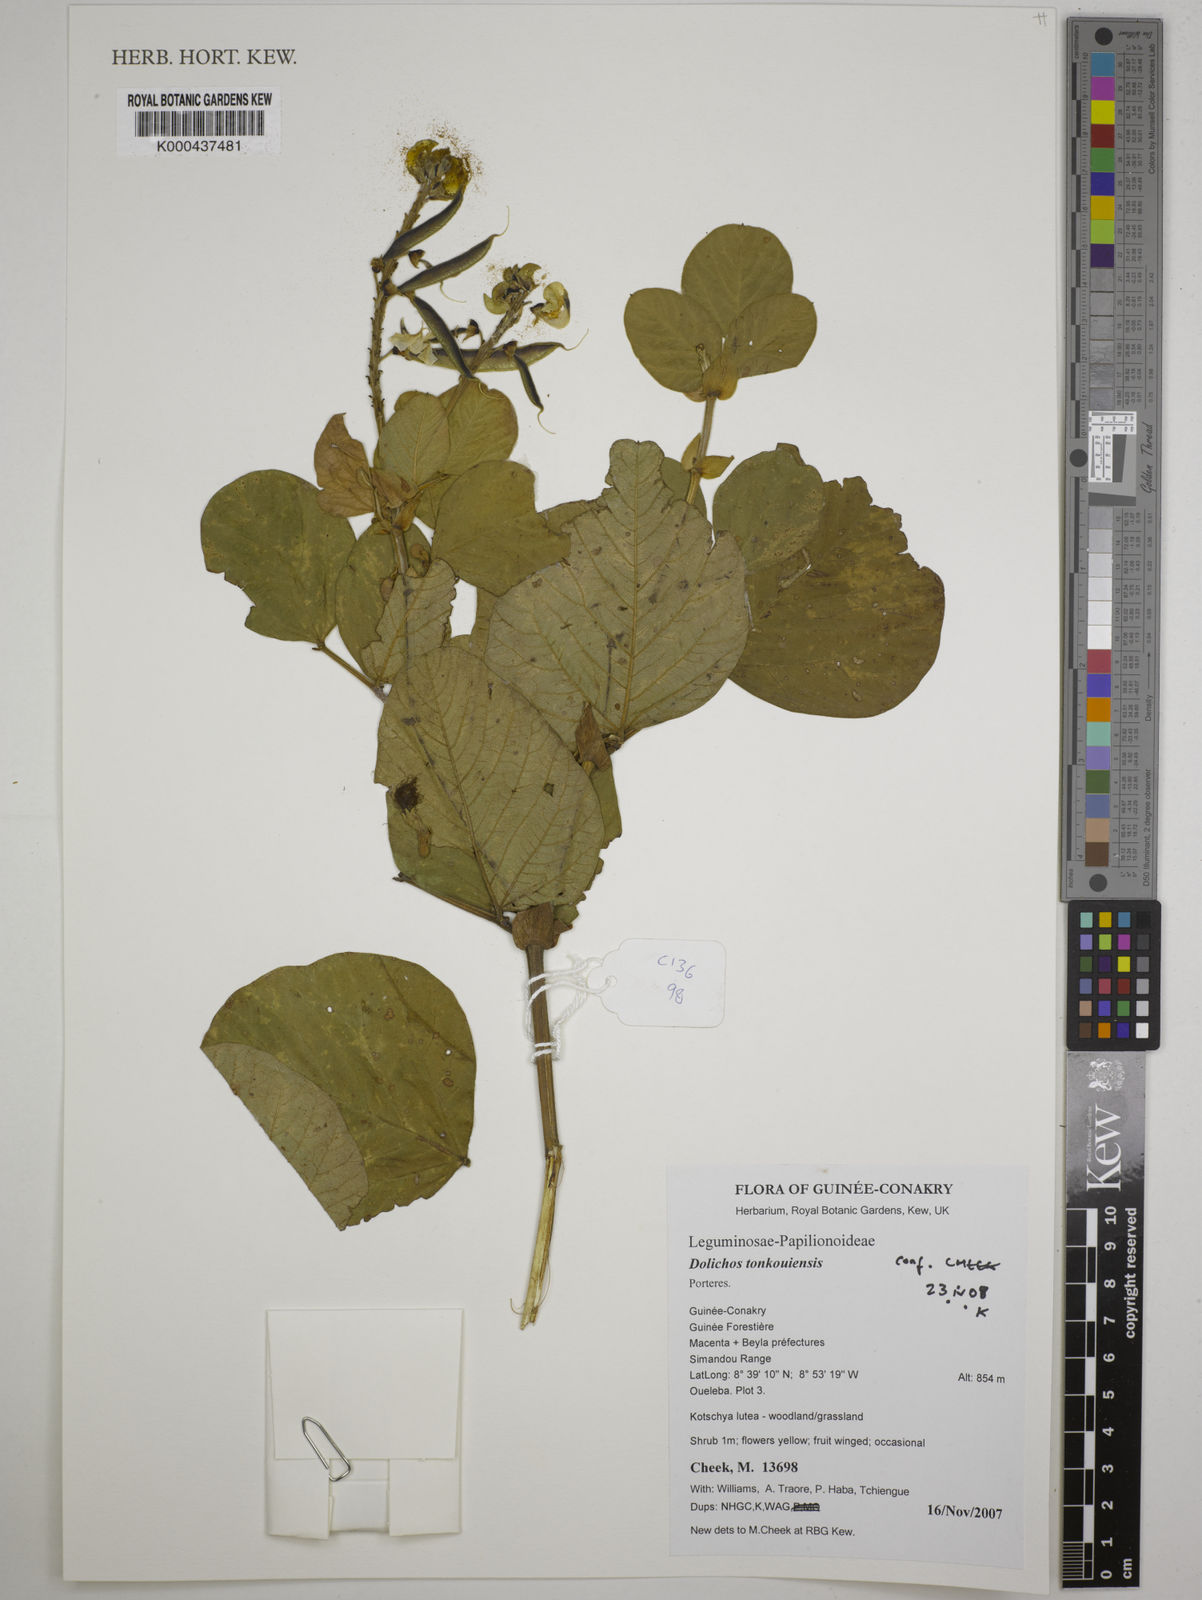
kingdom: Plantae
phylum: Tracheophyta
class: Magnoliopsida
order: Fabales
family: Fabaceae
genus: Dolichos
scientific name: Dolichos tonkouiensis
